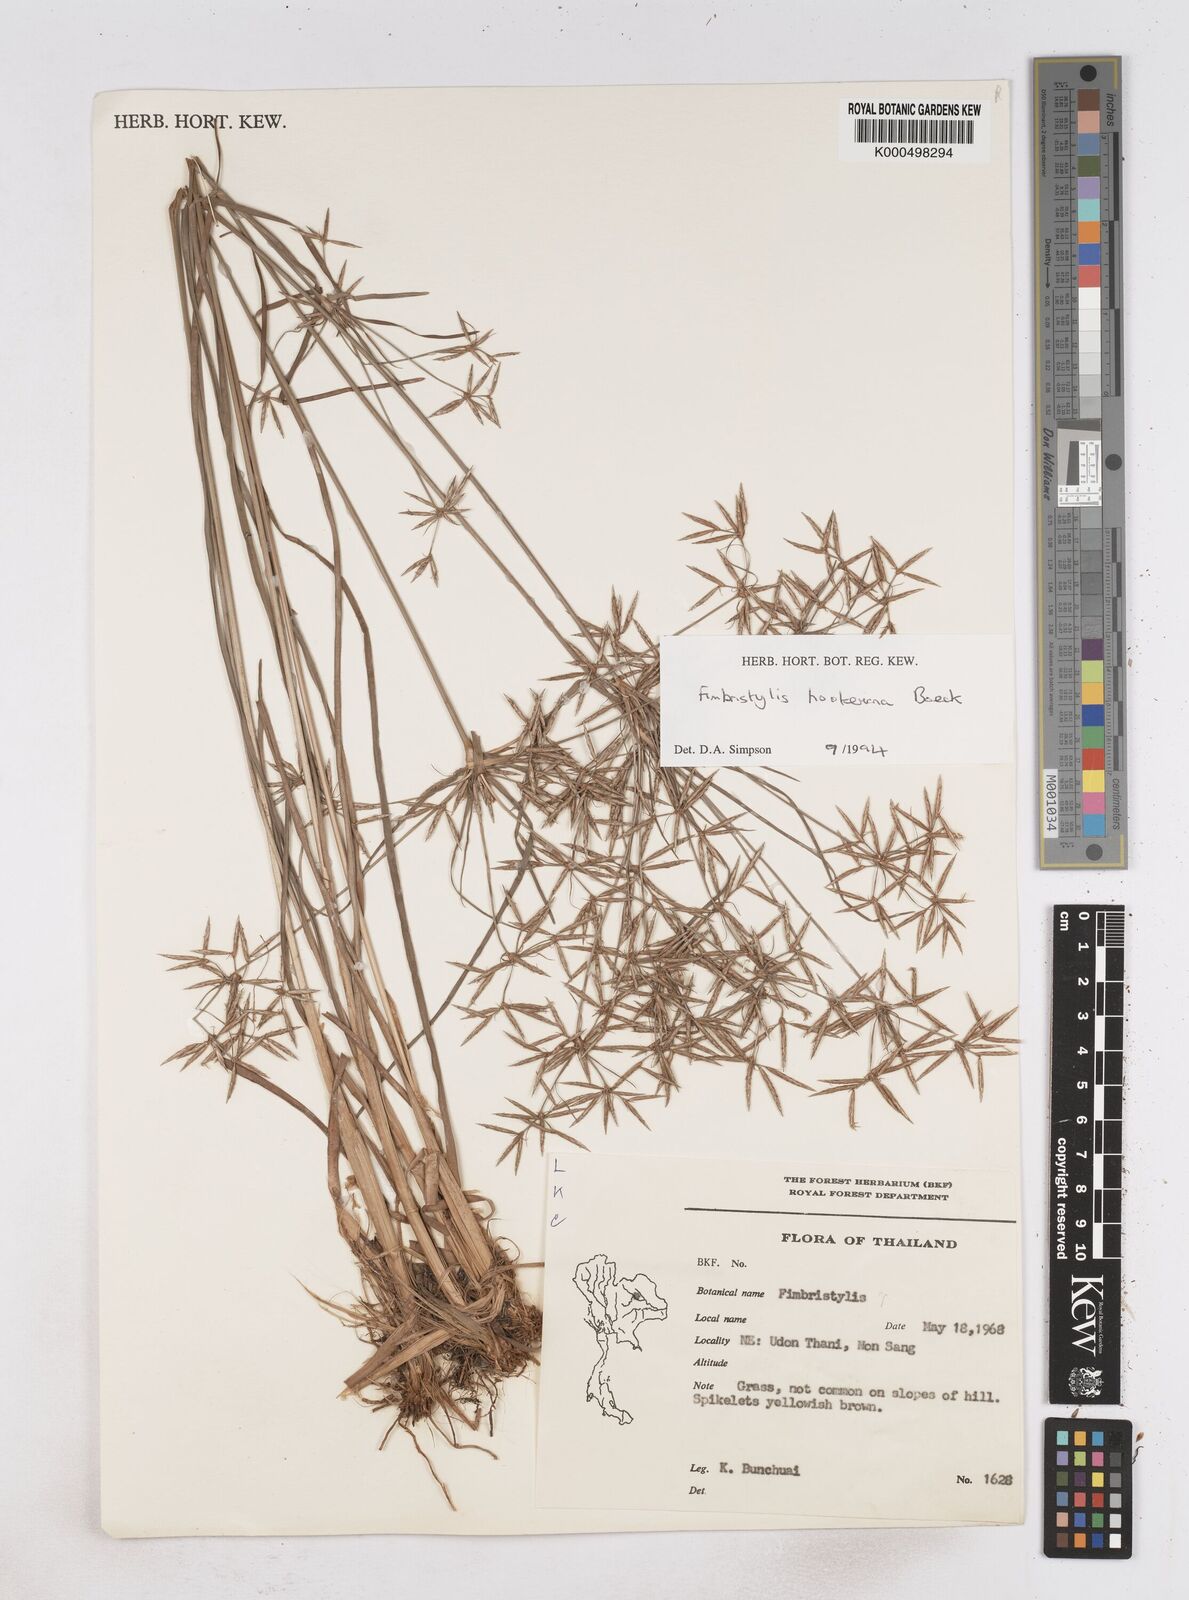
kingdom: Plantae
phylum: Tracheophyta
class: Liliopsida
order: Poales
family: Cyperaceae
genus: Fimbristylis
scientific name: Fimbristylis hookeriana
